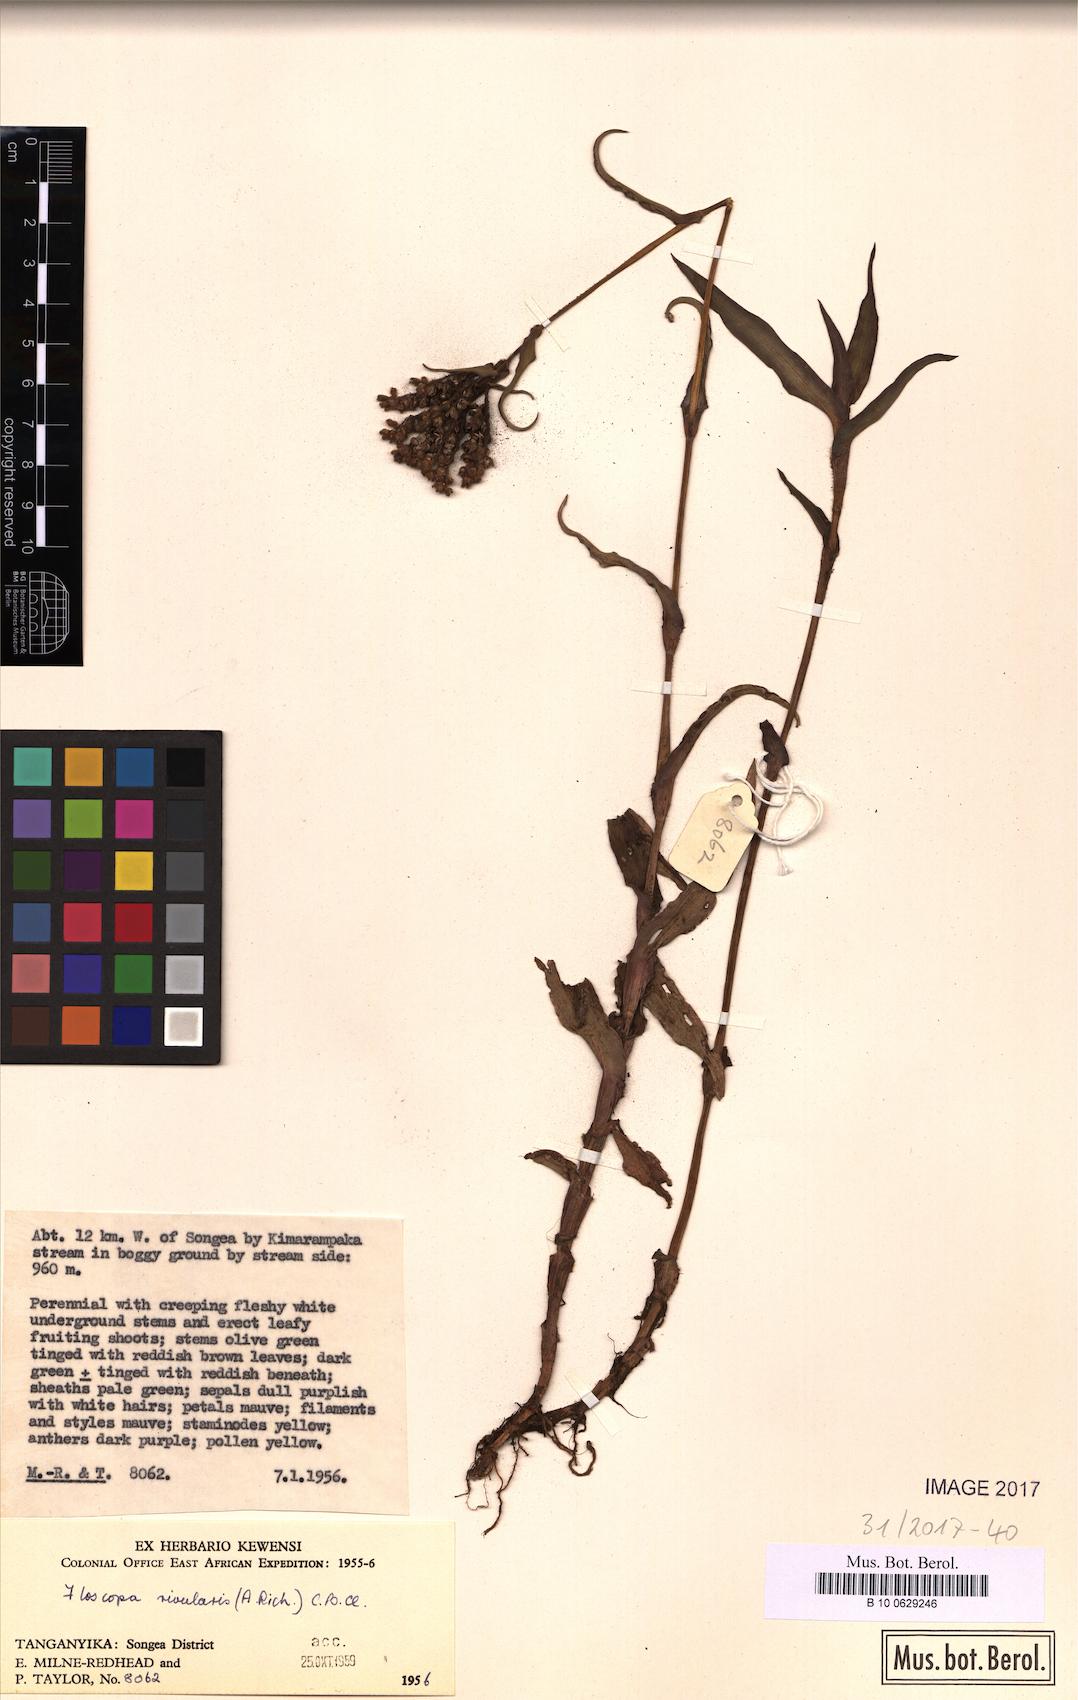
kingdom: Plantae
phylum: Tracheophyta
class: Liliopsida
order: Commelinales
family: Commelinaceae
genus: Floscopa
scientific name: Floscopa glomerata
